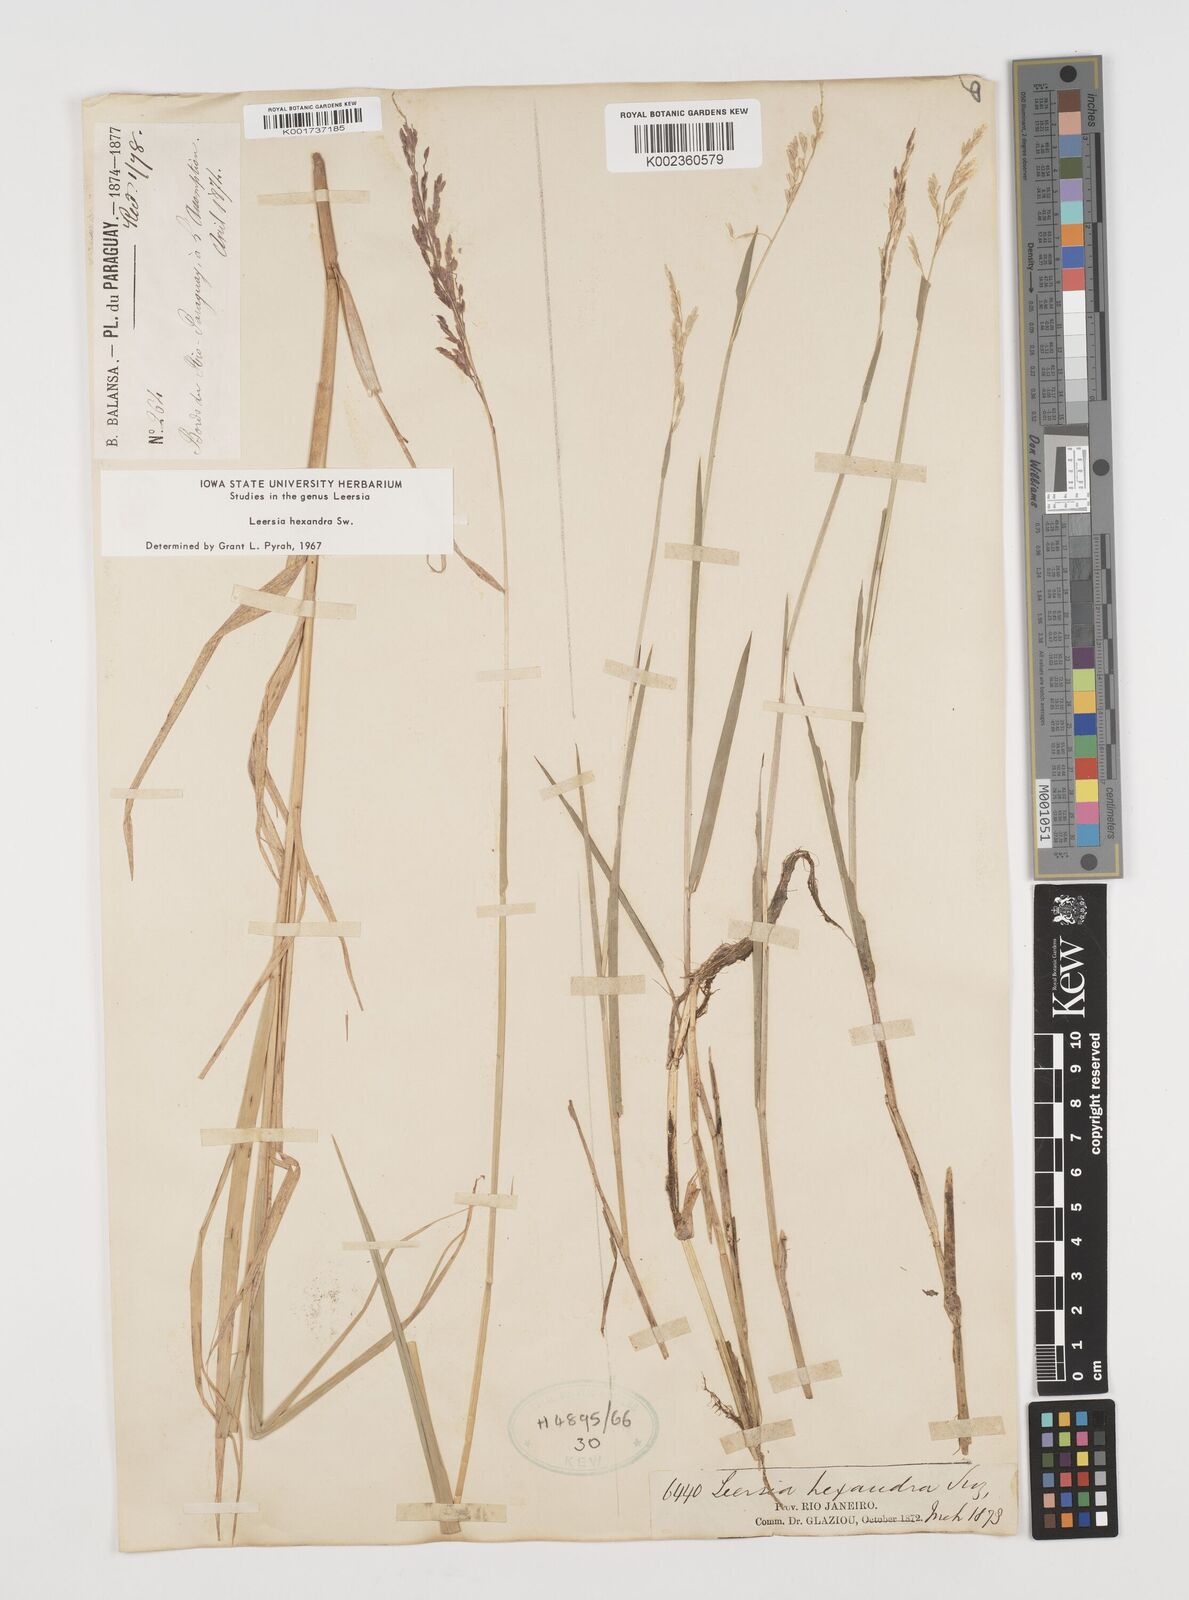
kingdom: Plantae
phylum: Tracheophyta
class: Liliopsida
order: Poales
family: Poaceae
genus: Leersia
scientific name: Leersia hexandra
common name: Southern cut grass
